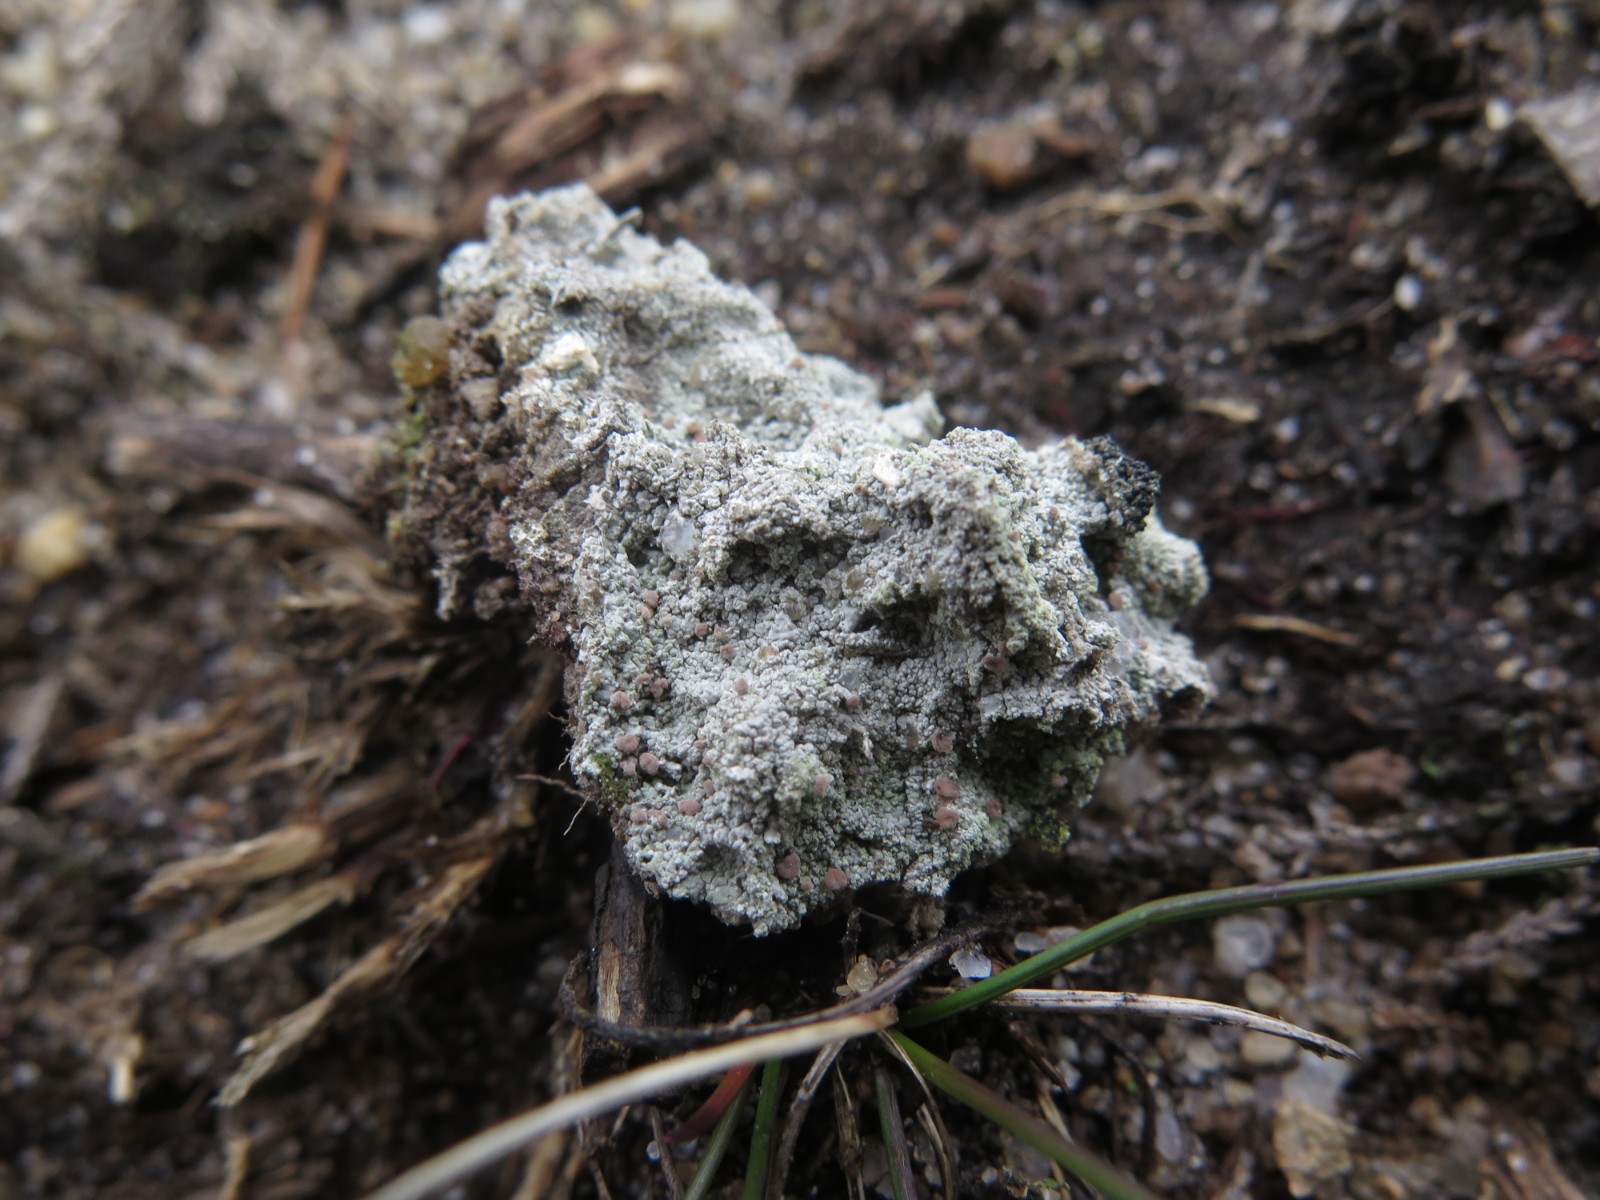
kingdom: Fungi
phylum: Ascomycota
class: Lecanoromycetes
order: Baeomycetales
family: Baeomycetaceae
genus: Baeomyces
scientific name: Baeomyces rufus
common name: rødbrun svampelav
